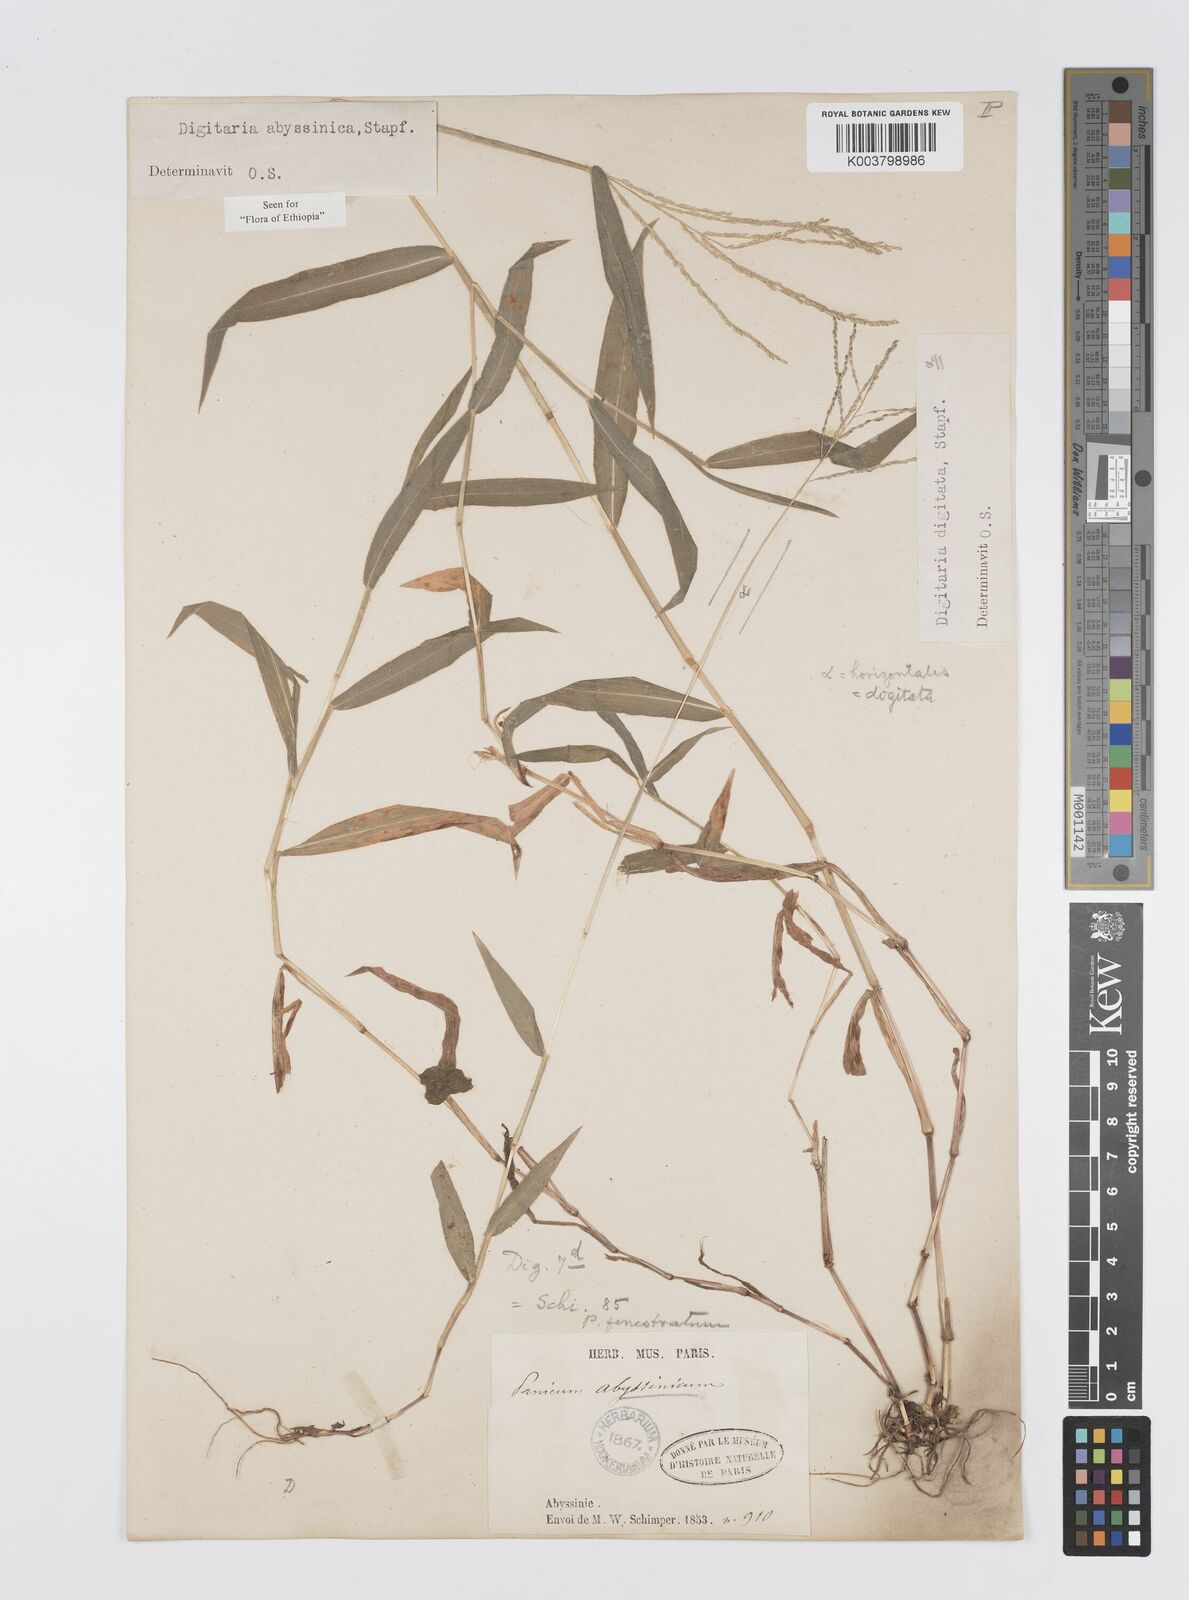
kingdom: Plantae
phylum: Tracheophyta
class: Liliopsida
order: Poales
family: Poaceae
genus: Digitaria
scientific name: Digitaria abyssinica
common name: African couchgrass
